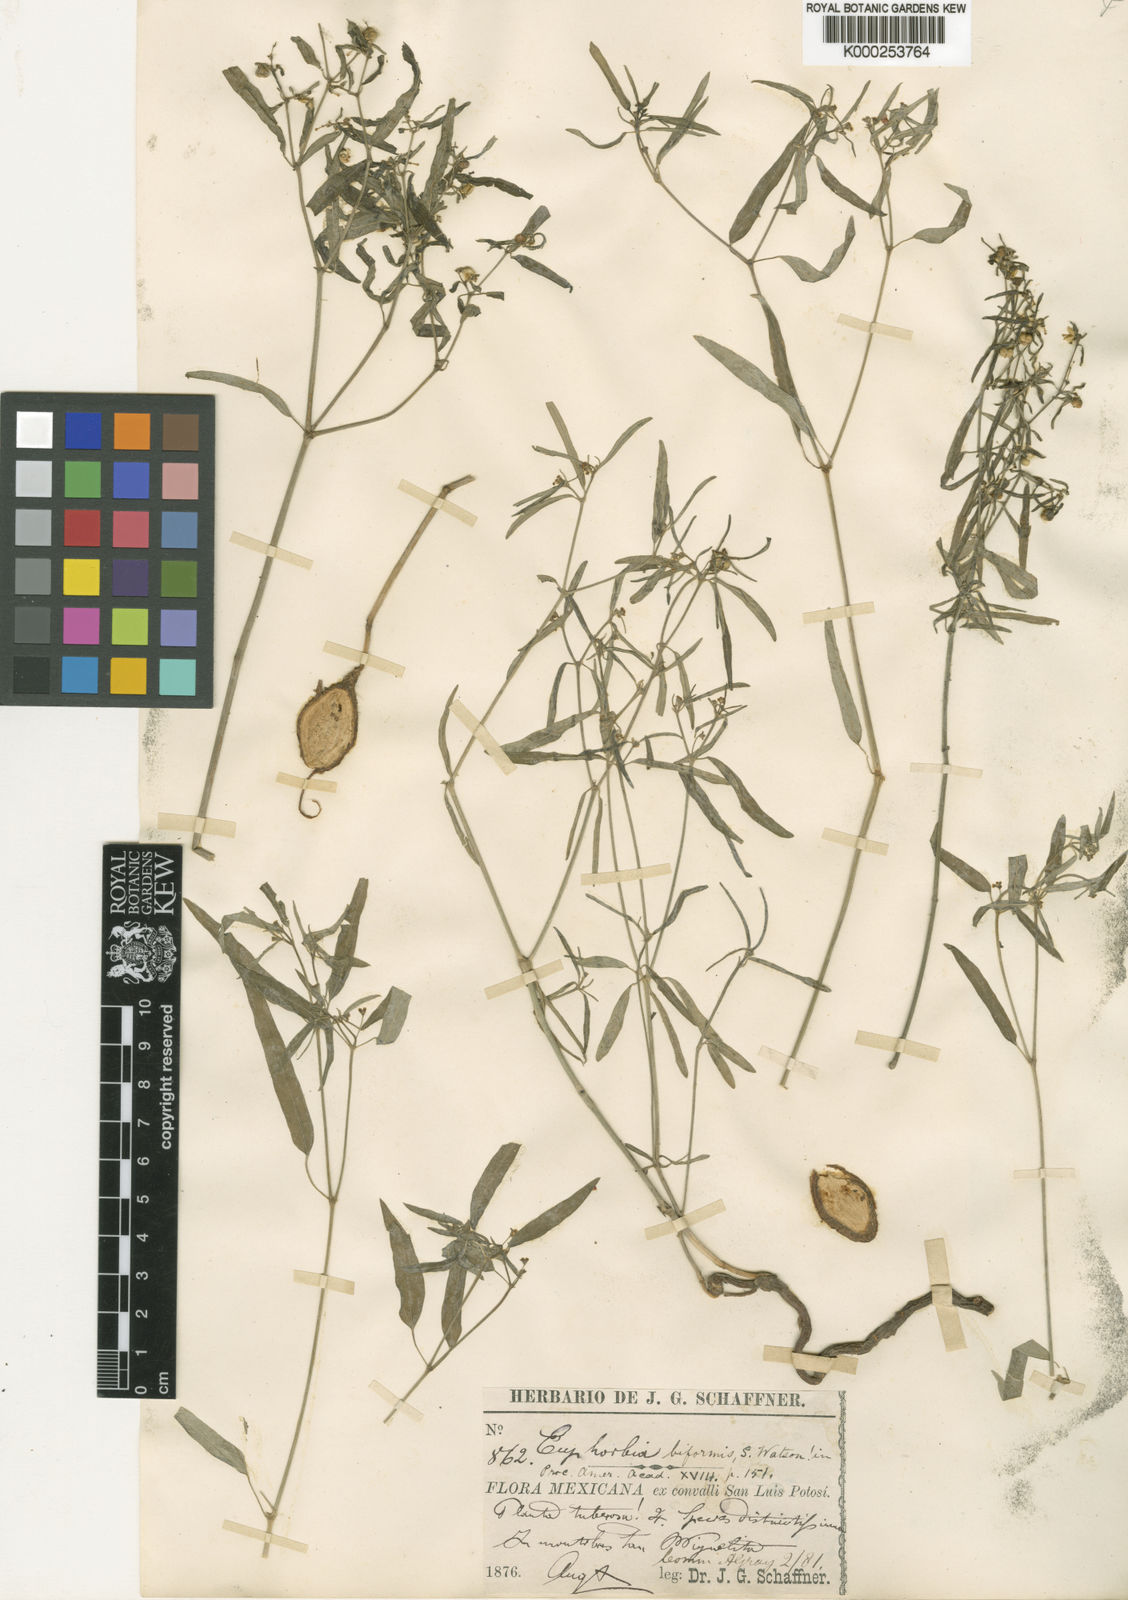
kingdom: Plantae
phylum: Tracheophyta
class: Magnoliopsida
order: Malpighiales
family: Euphorbiaceae
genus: Euphorbia
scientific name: Euphorbia macropus
